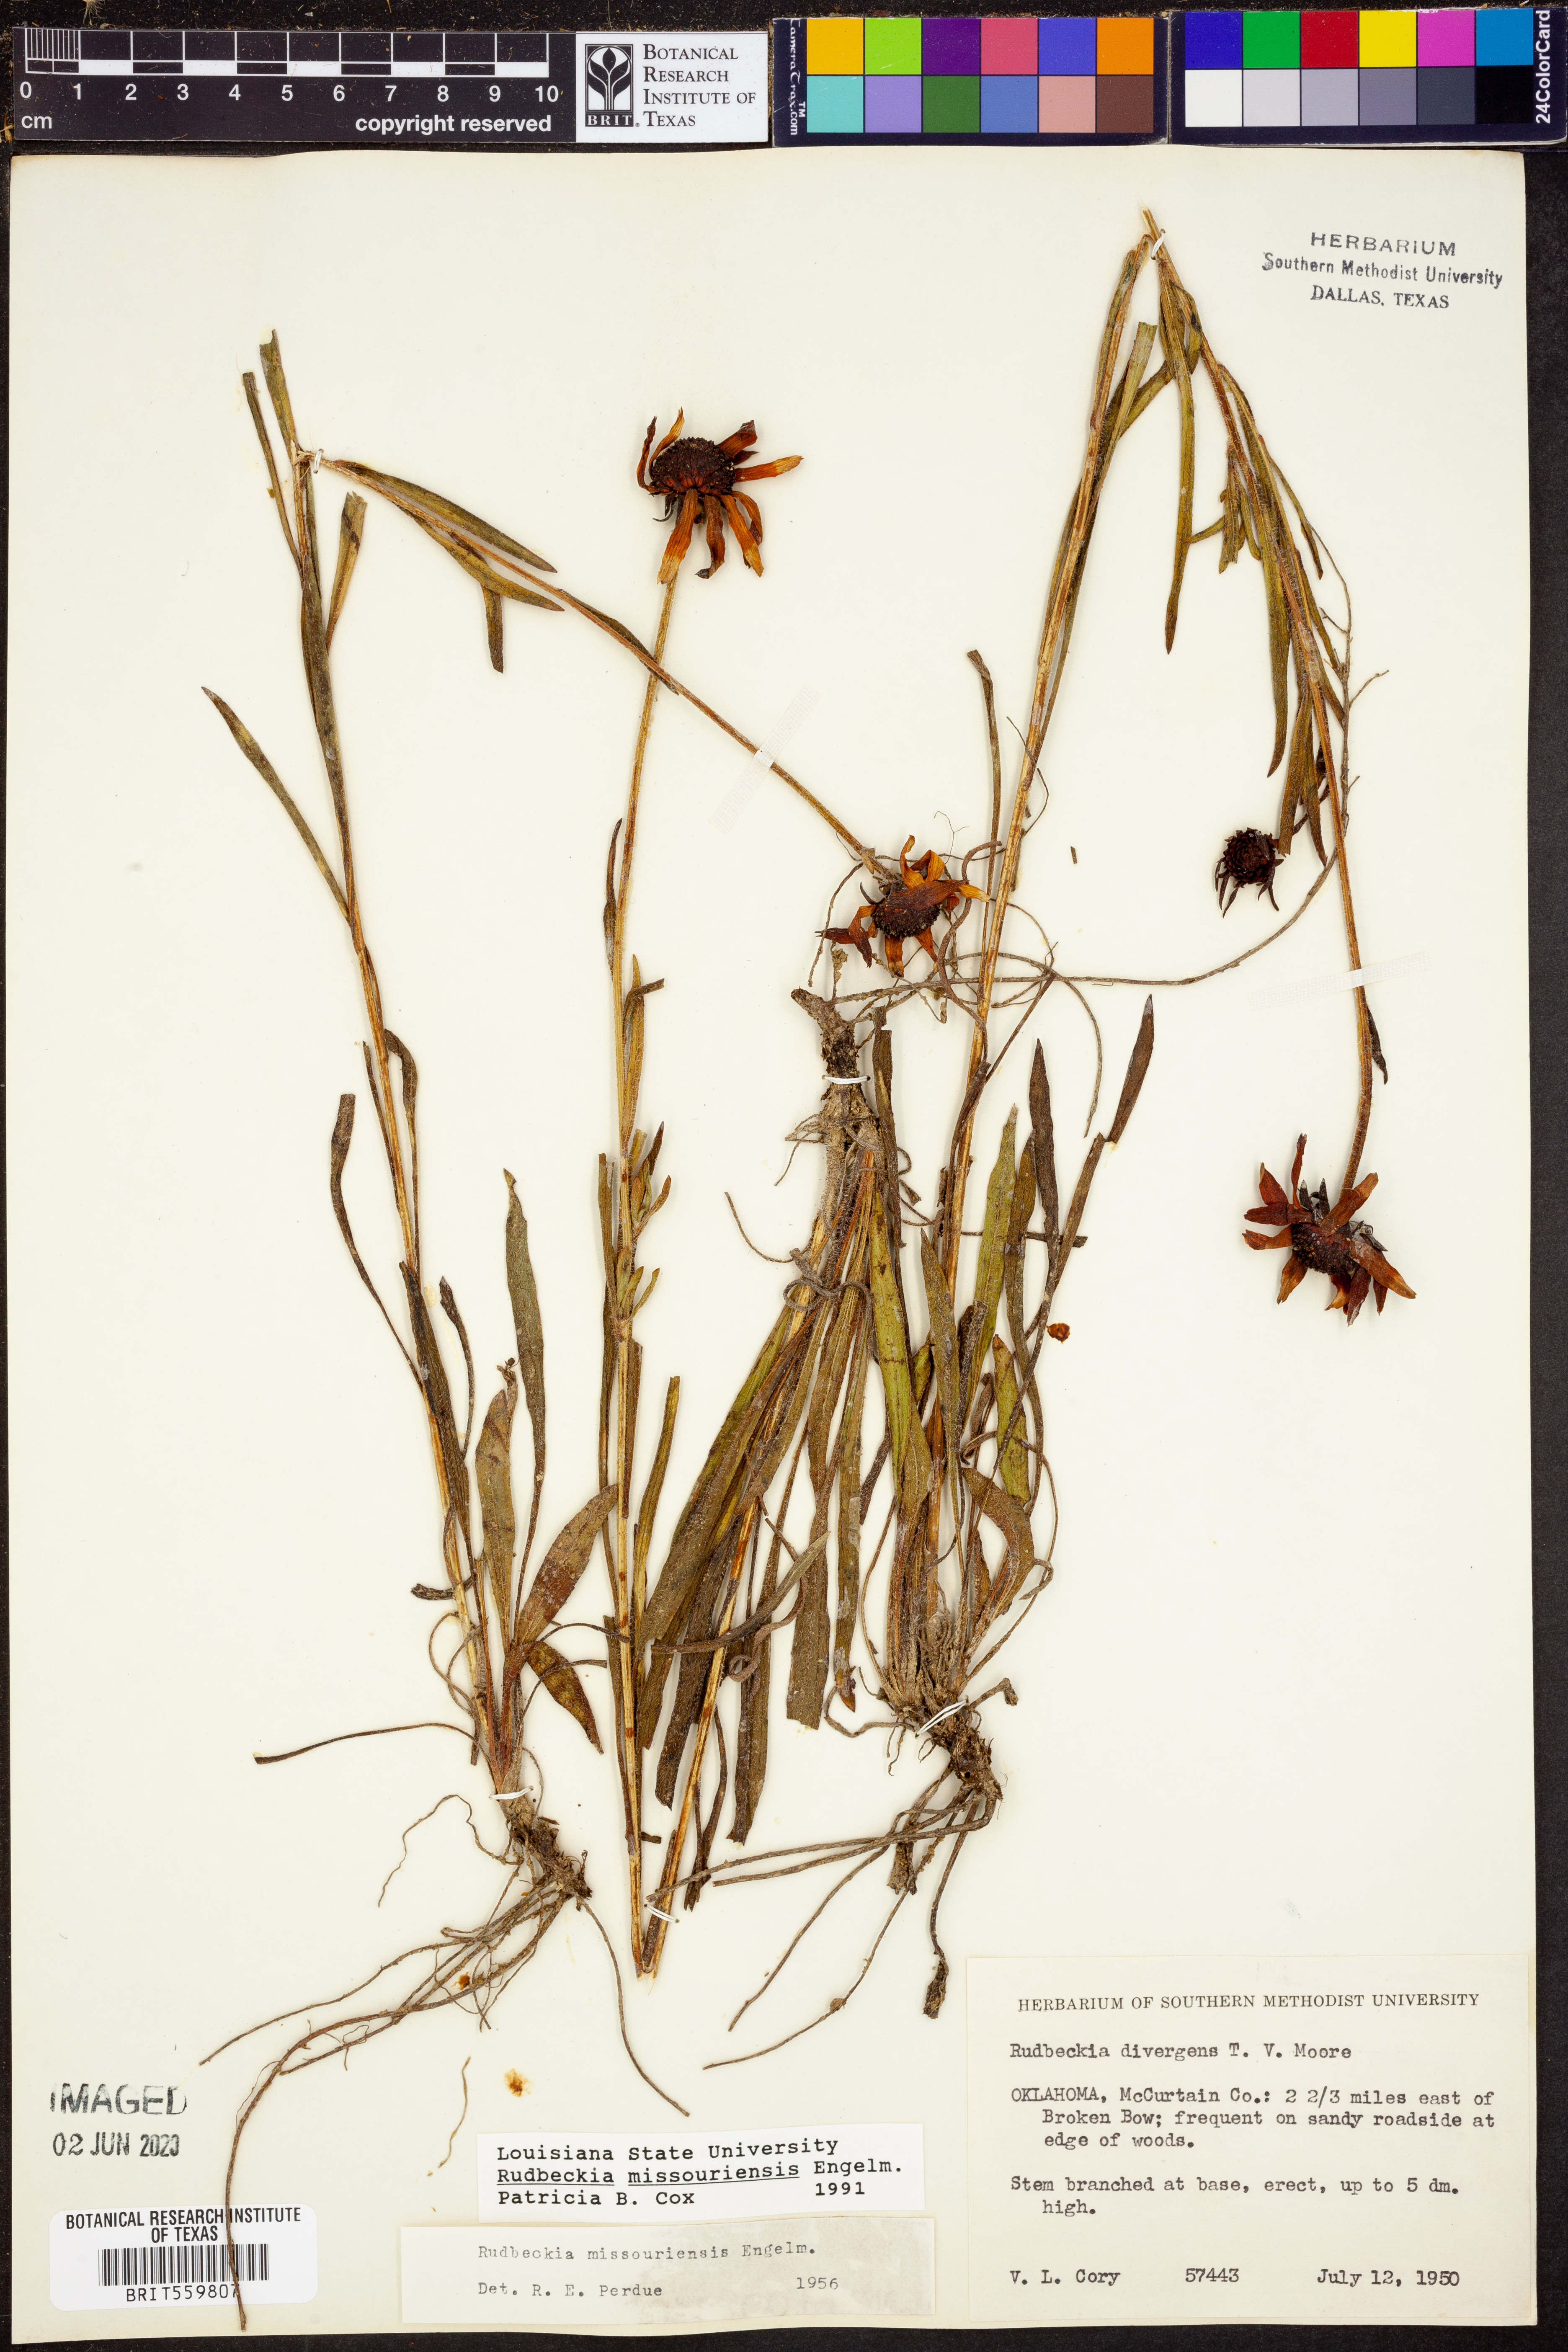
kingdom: Plantae
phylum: Tracheophyta
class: Magnoliopsida
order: Asterales
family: Asteraceae
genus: Rudbeckia
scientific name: Rudbeckia missouriensis
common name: Missouri coneflower
